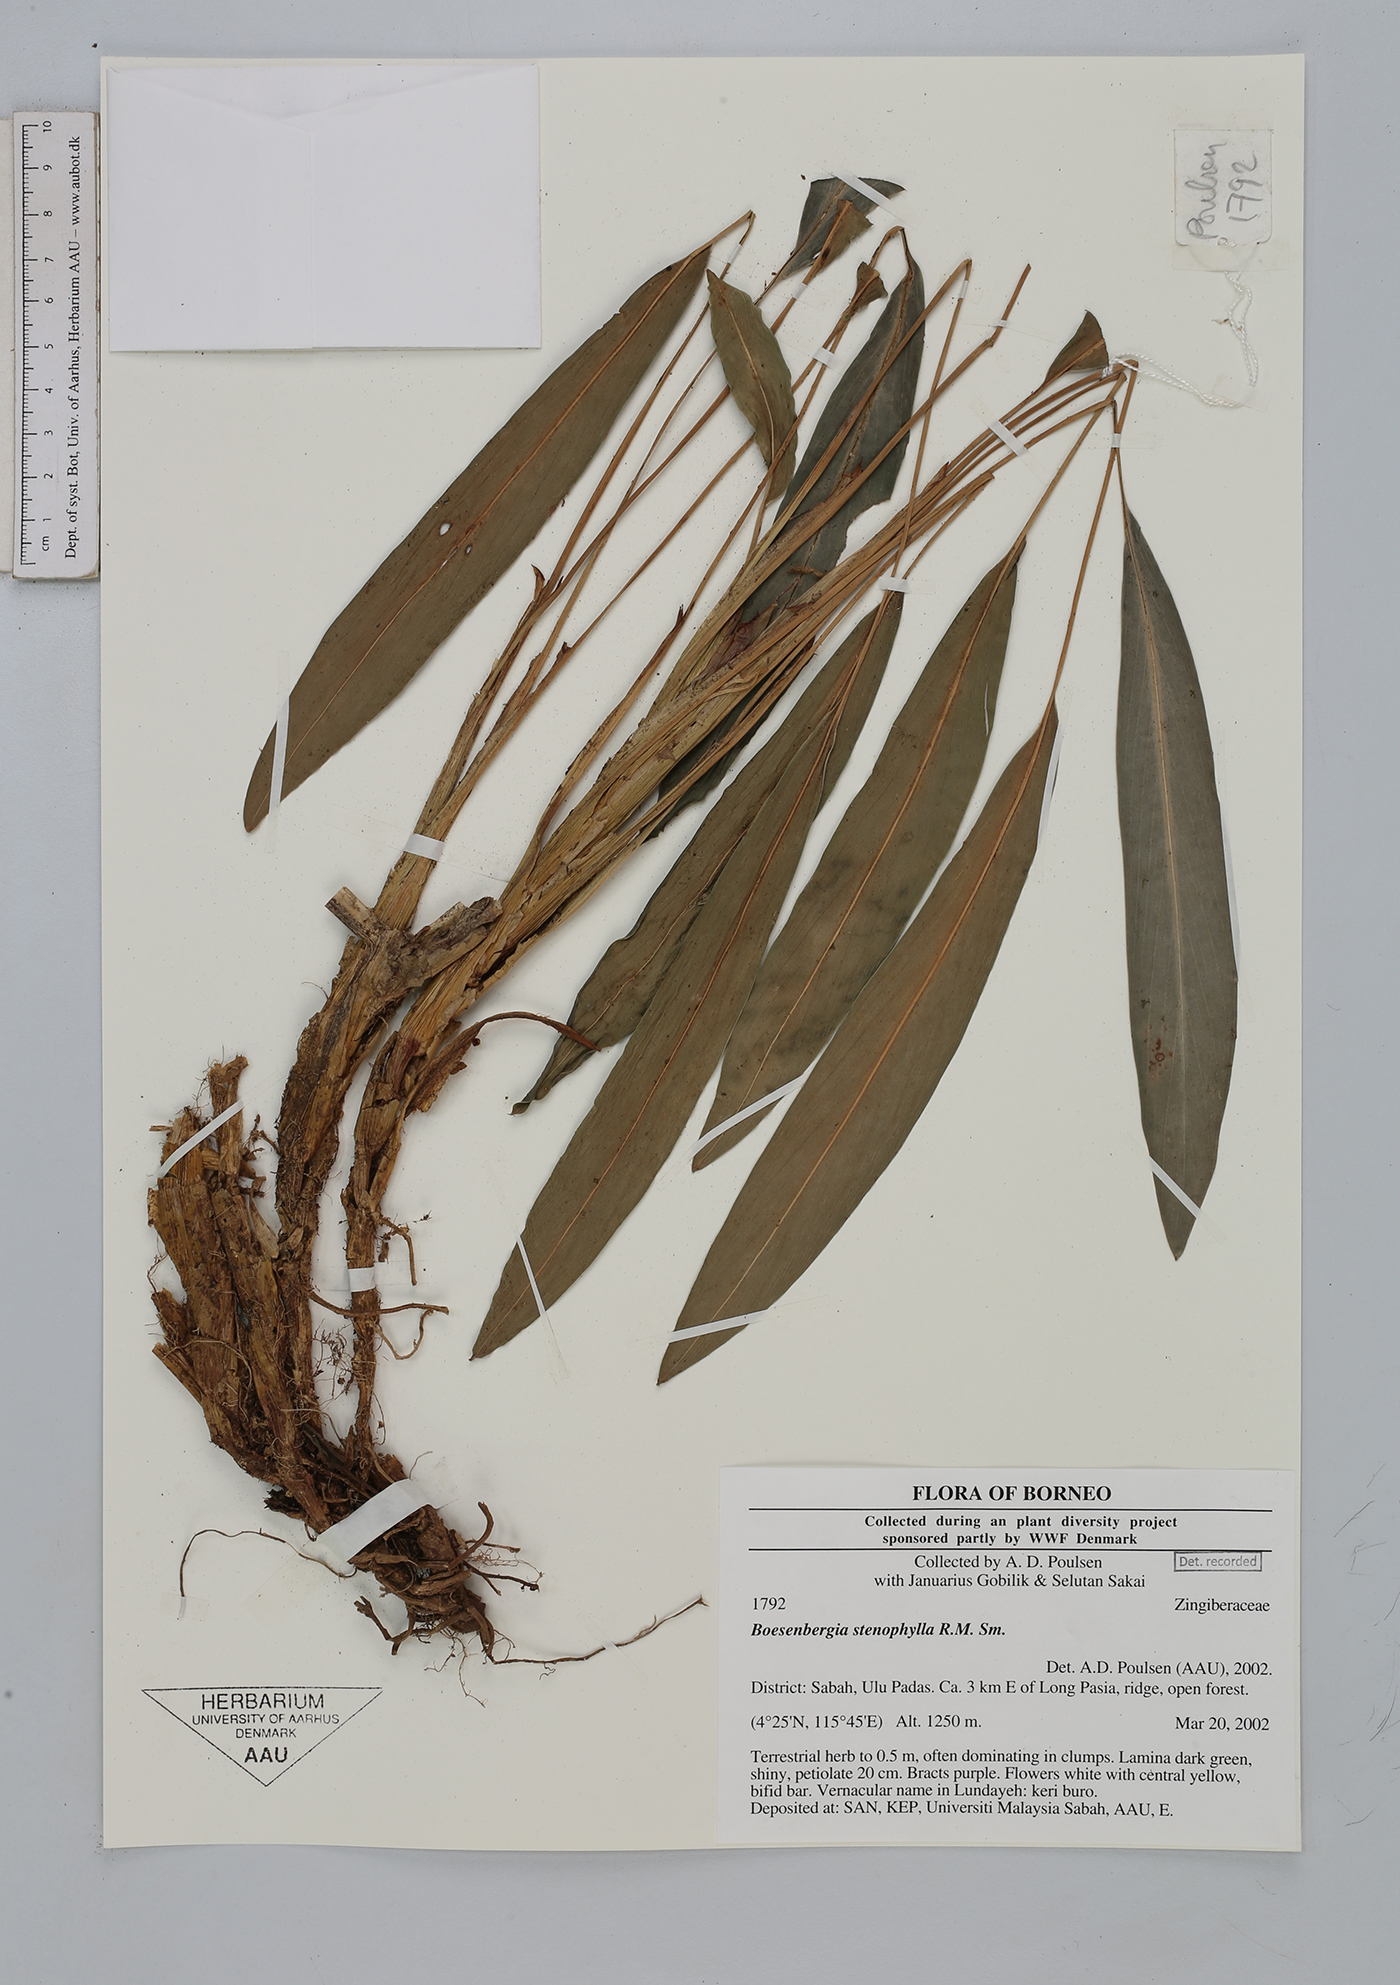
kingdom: Plantae
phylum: Tracheophyta
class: Liliopsida
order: Zingiberales
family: Zingiberaceae
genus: Boesenbergia
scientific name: Boesenbergia stenophylla
